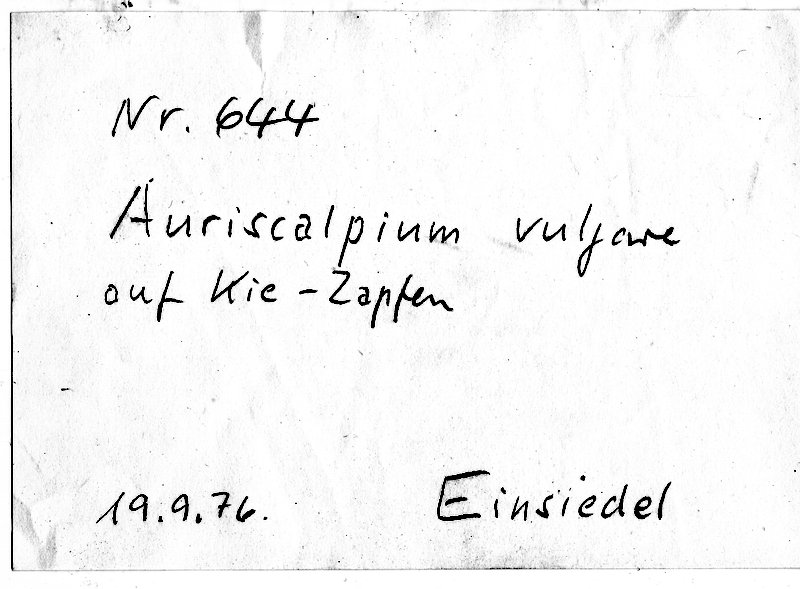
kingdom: Fungi
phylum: Basidiomycota
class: Agaricomycetes
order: Russulales
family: Auriscalpiaceae
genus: Auriscalpium
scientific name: Auriscalpium vulgare
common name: Earpick fungus
